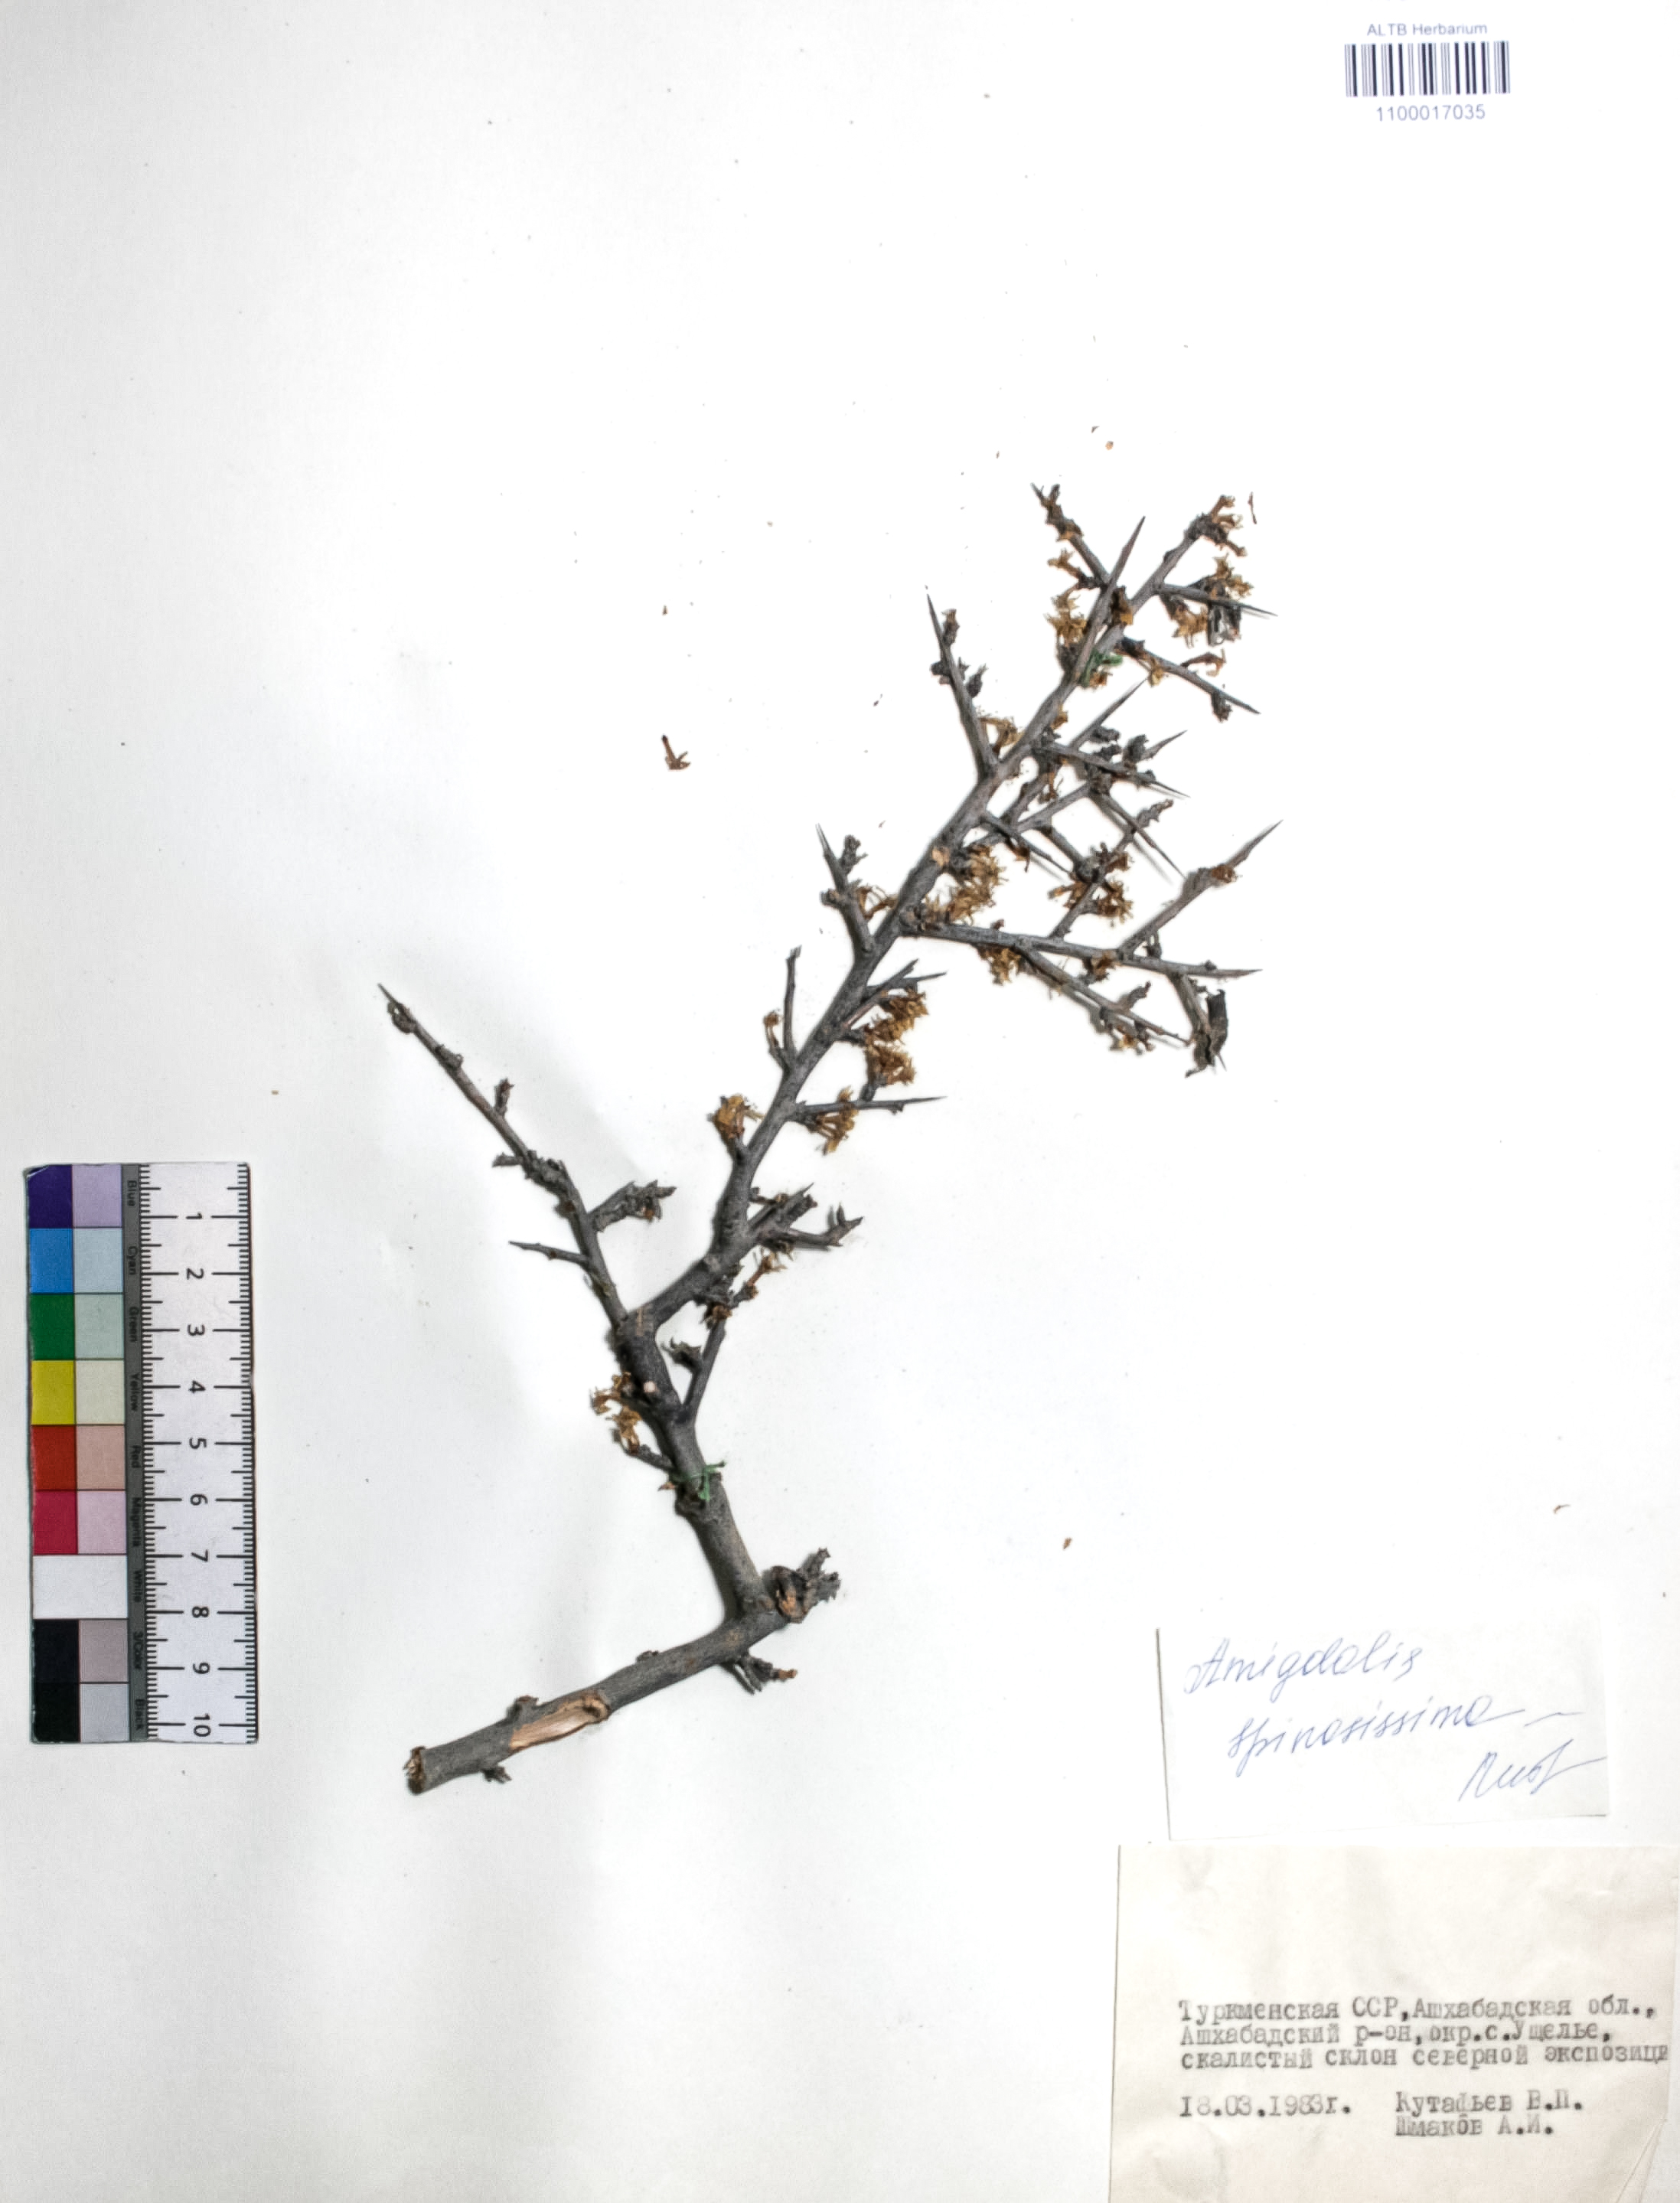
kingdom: Plantae
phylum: Tracheophyta
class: Magnoliopsida
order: Rosales
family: Rosaceae
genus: Prunus
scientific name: Prunus spinosissima
